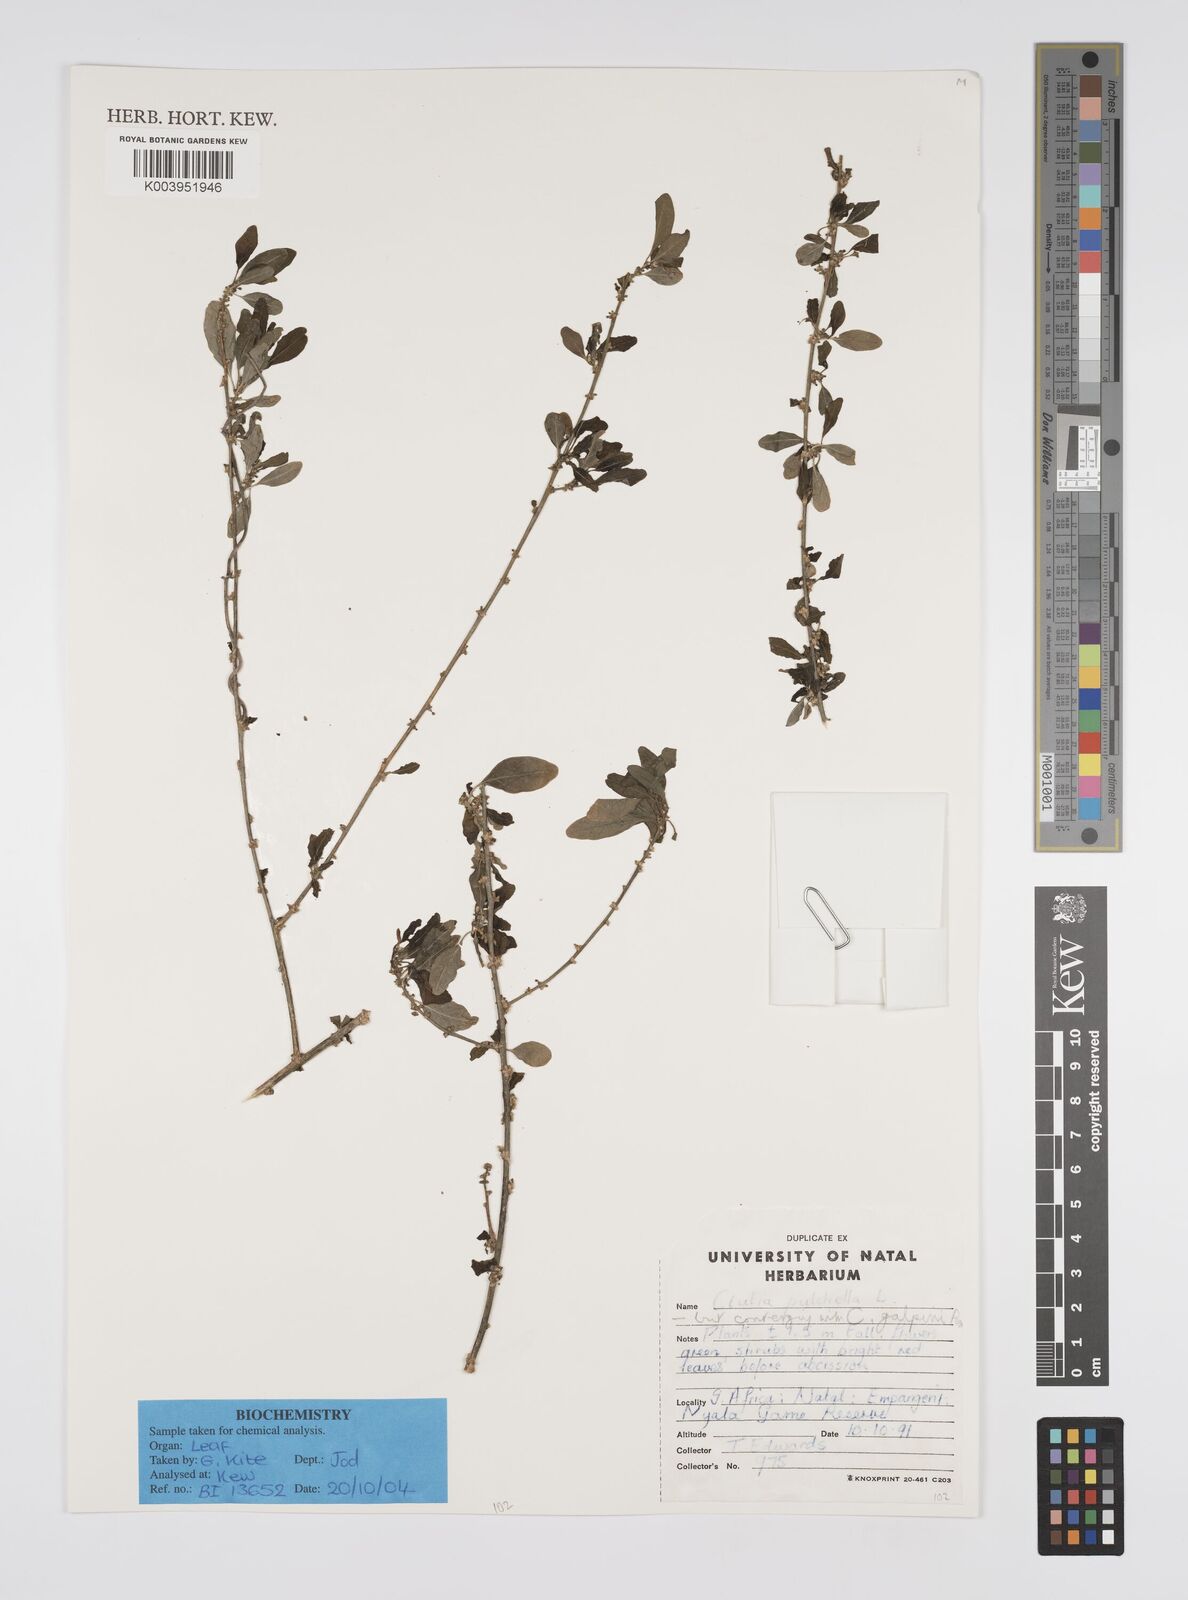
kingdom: Plantae
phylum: Tracheophyta
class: Magnoliopsida
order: Malpighiales
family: Peraceae
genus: Clutia
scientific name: Clutia pulchella
